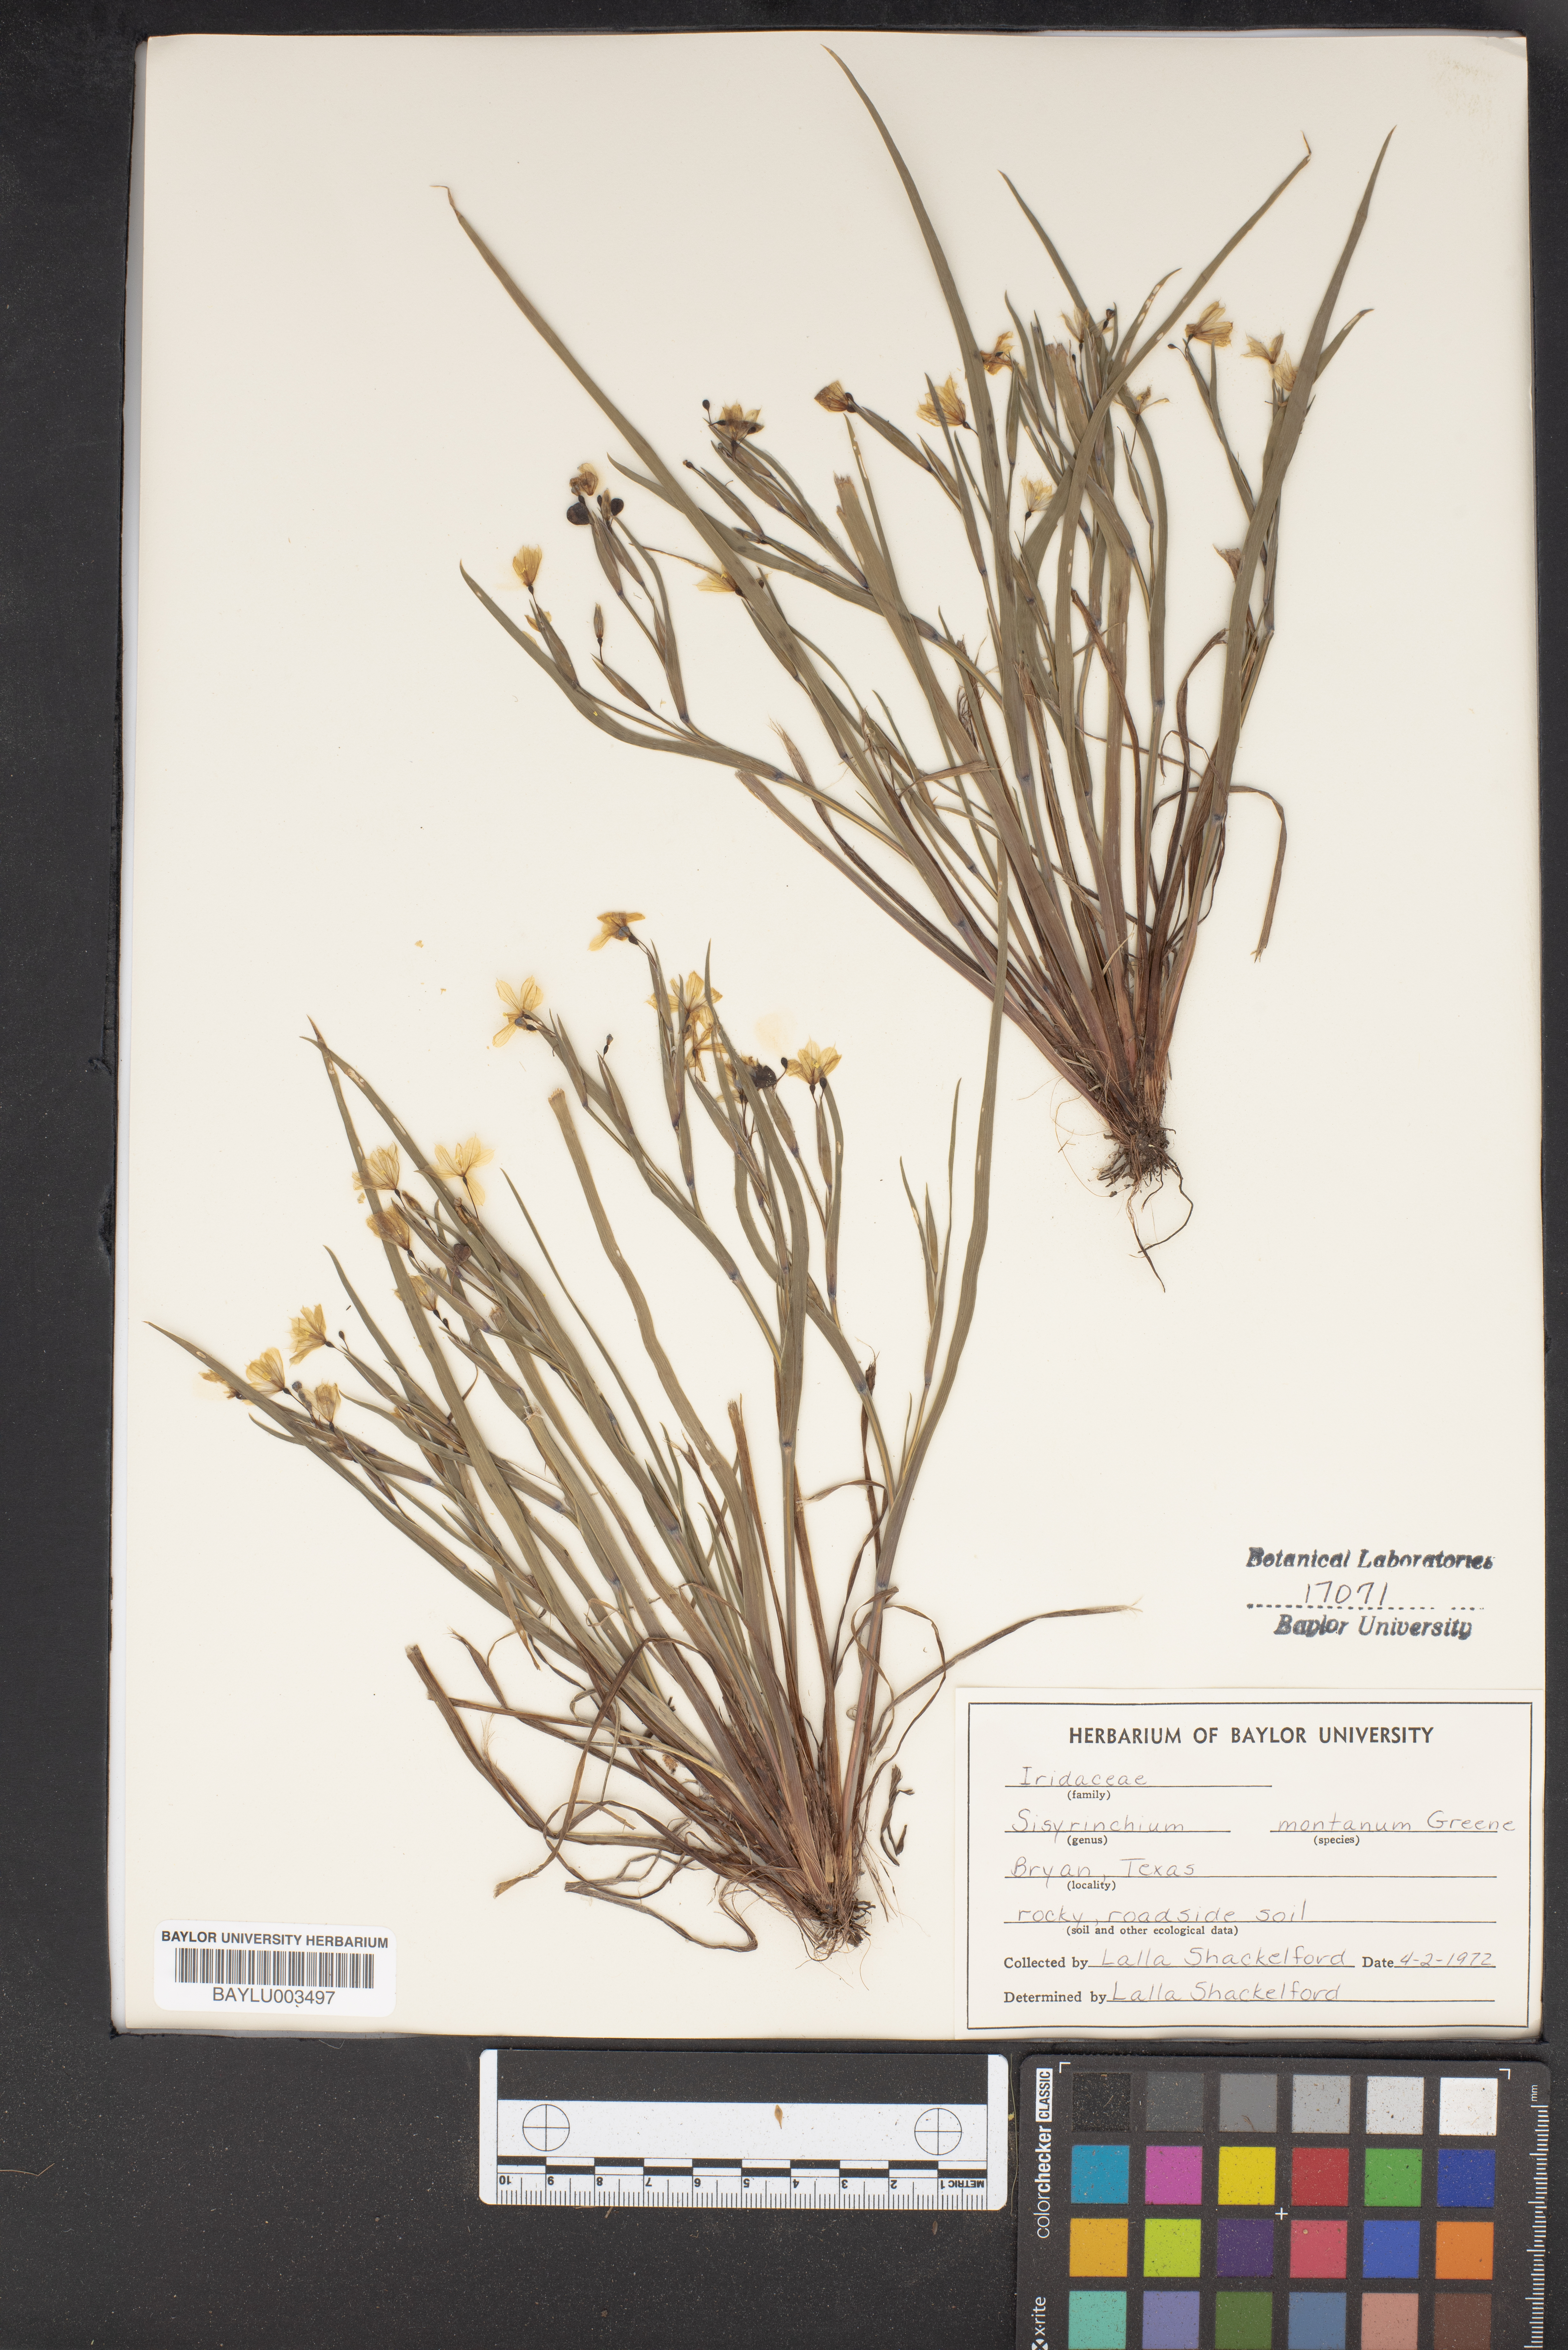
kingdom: Plantae
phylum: Tracheophyta
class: Liliopsida
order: Asparagales
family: Iridaceae
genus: Sisyrinchium
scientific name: Sisyrinchium montanum
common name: American blue-eyed-grass
